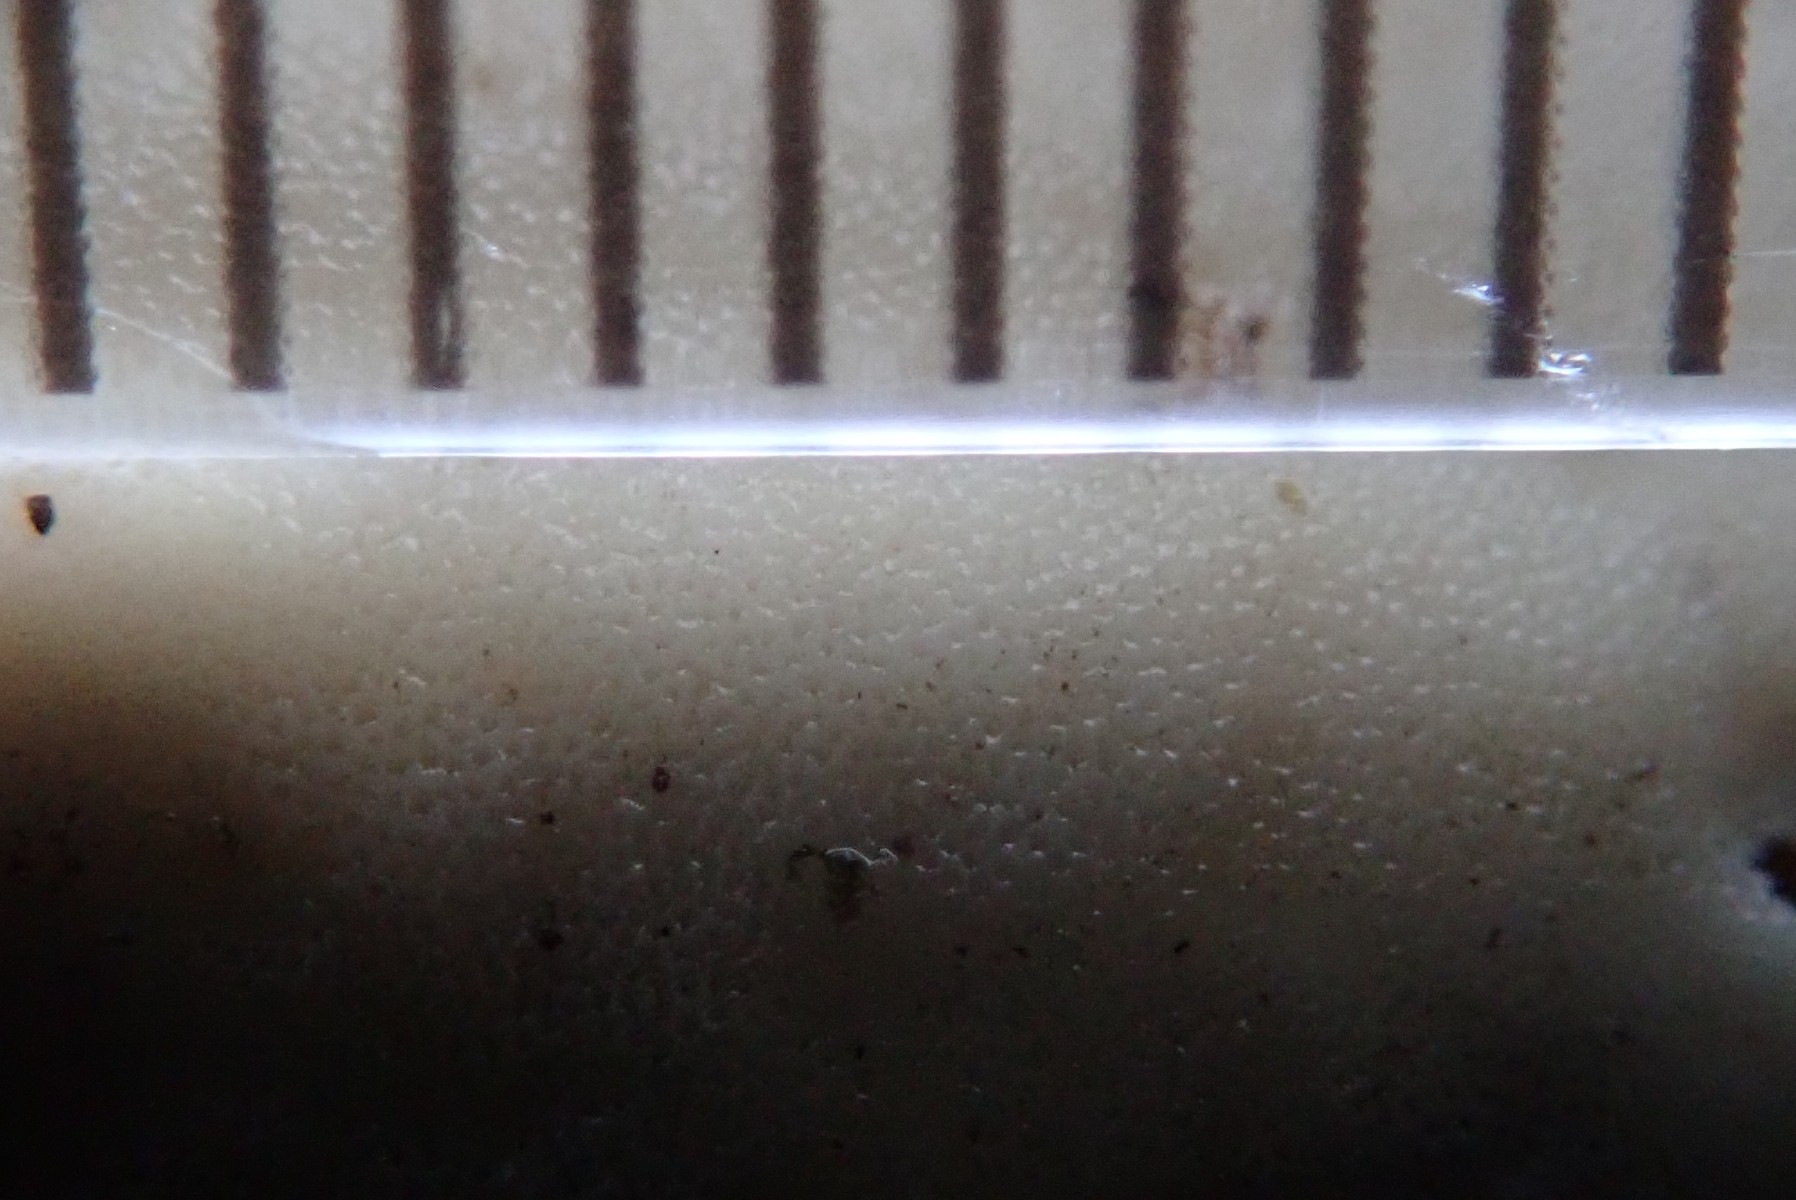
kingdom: Fungi
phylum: Basidiomycota
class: Agaricomycetes
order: Polyporales
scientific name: Polyporales
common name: poresvampordenen
